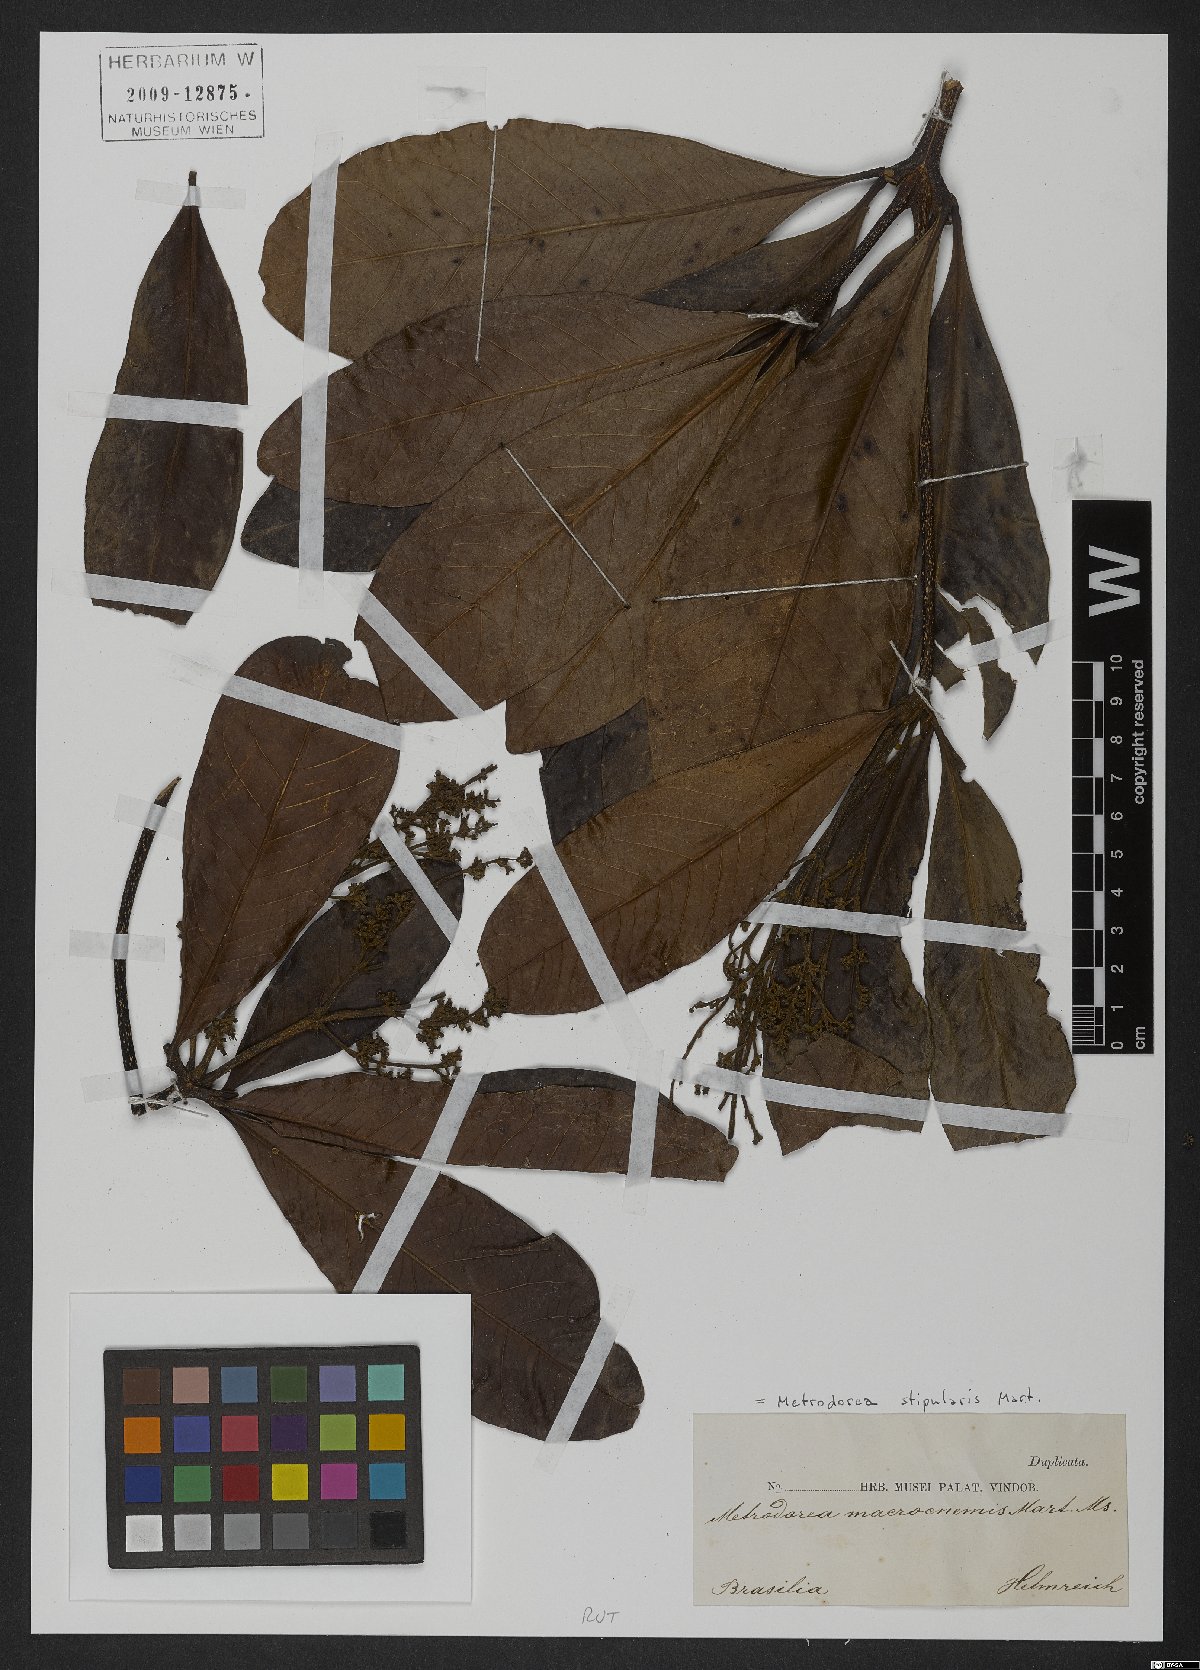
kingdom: Plantae
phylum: Tracheophyta
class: Magnoliopsida
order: Sapindales
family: Rutaceae
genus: Metrodorea
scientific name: Metrodorea stipularis
